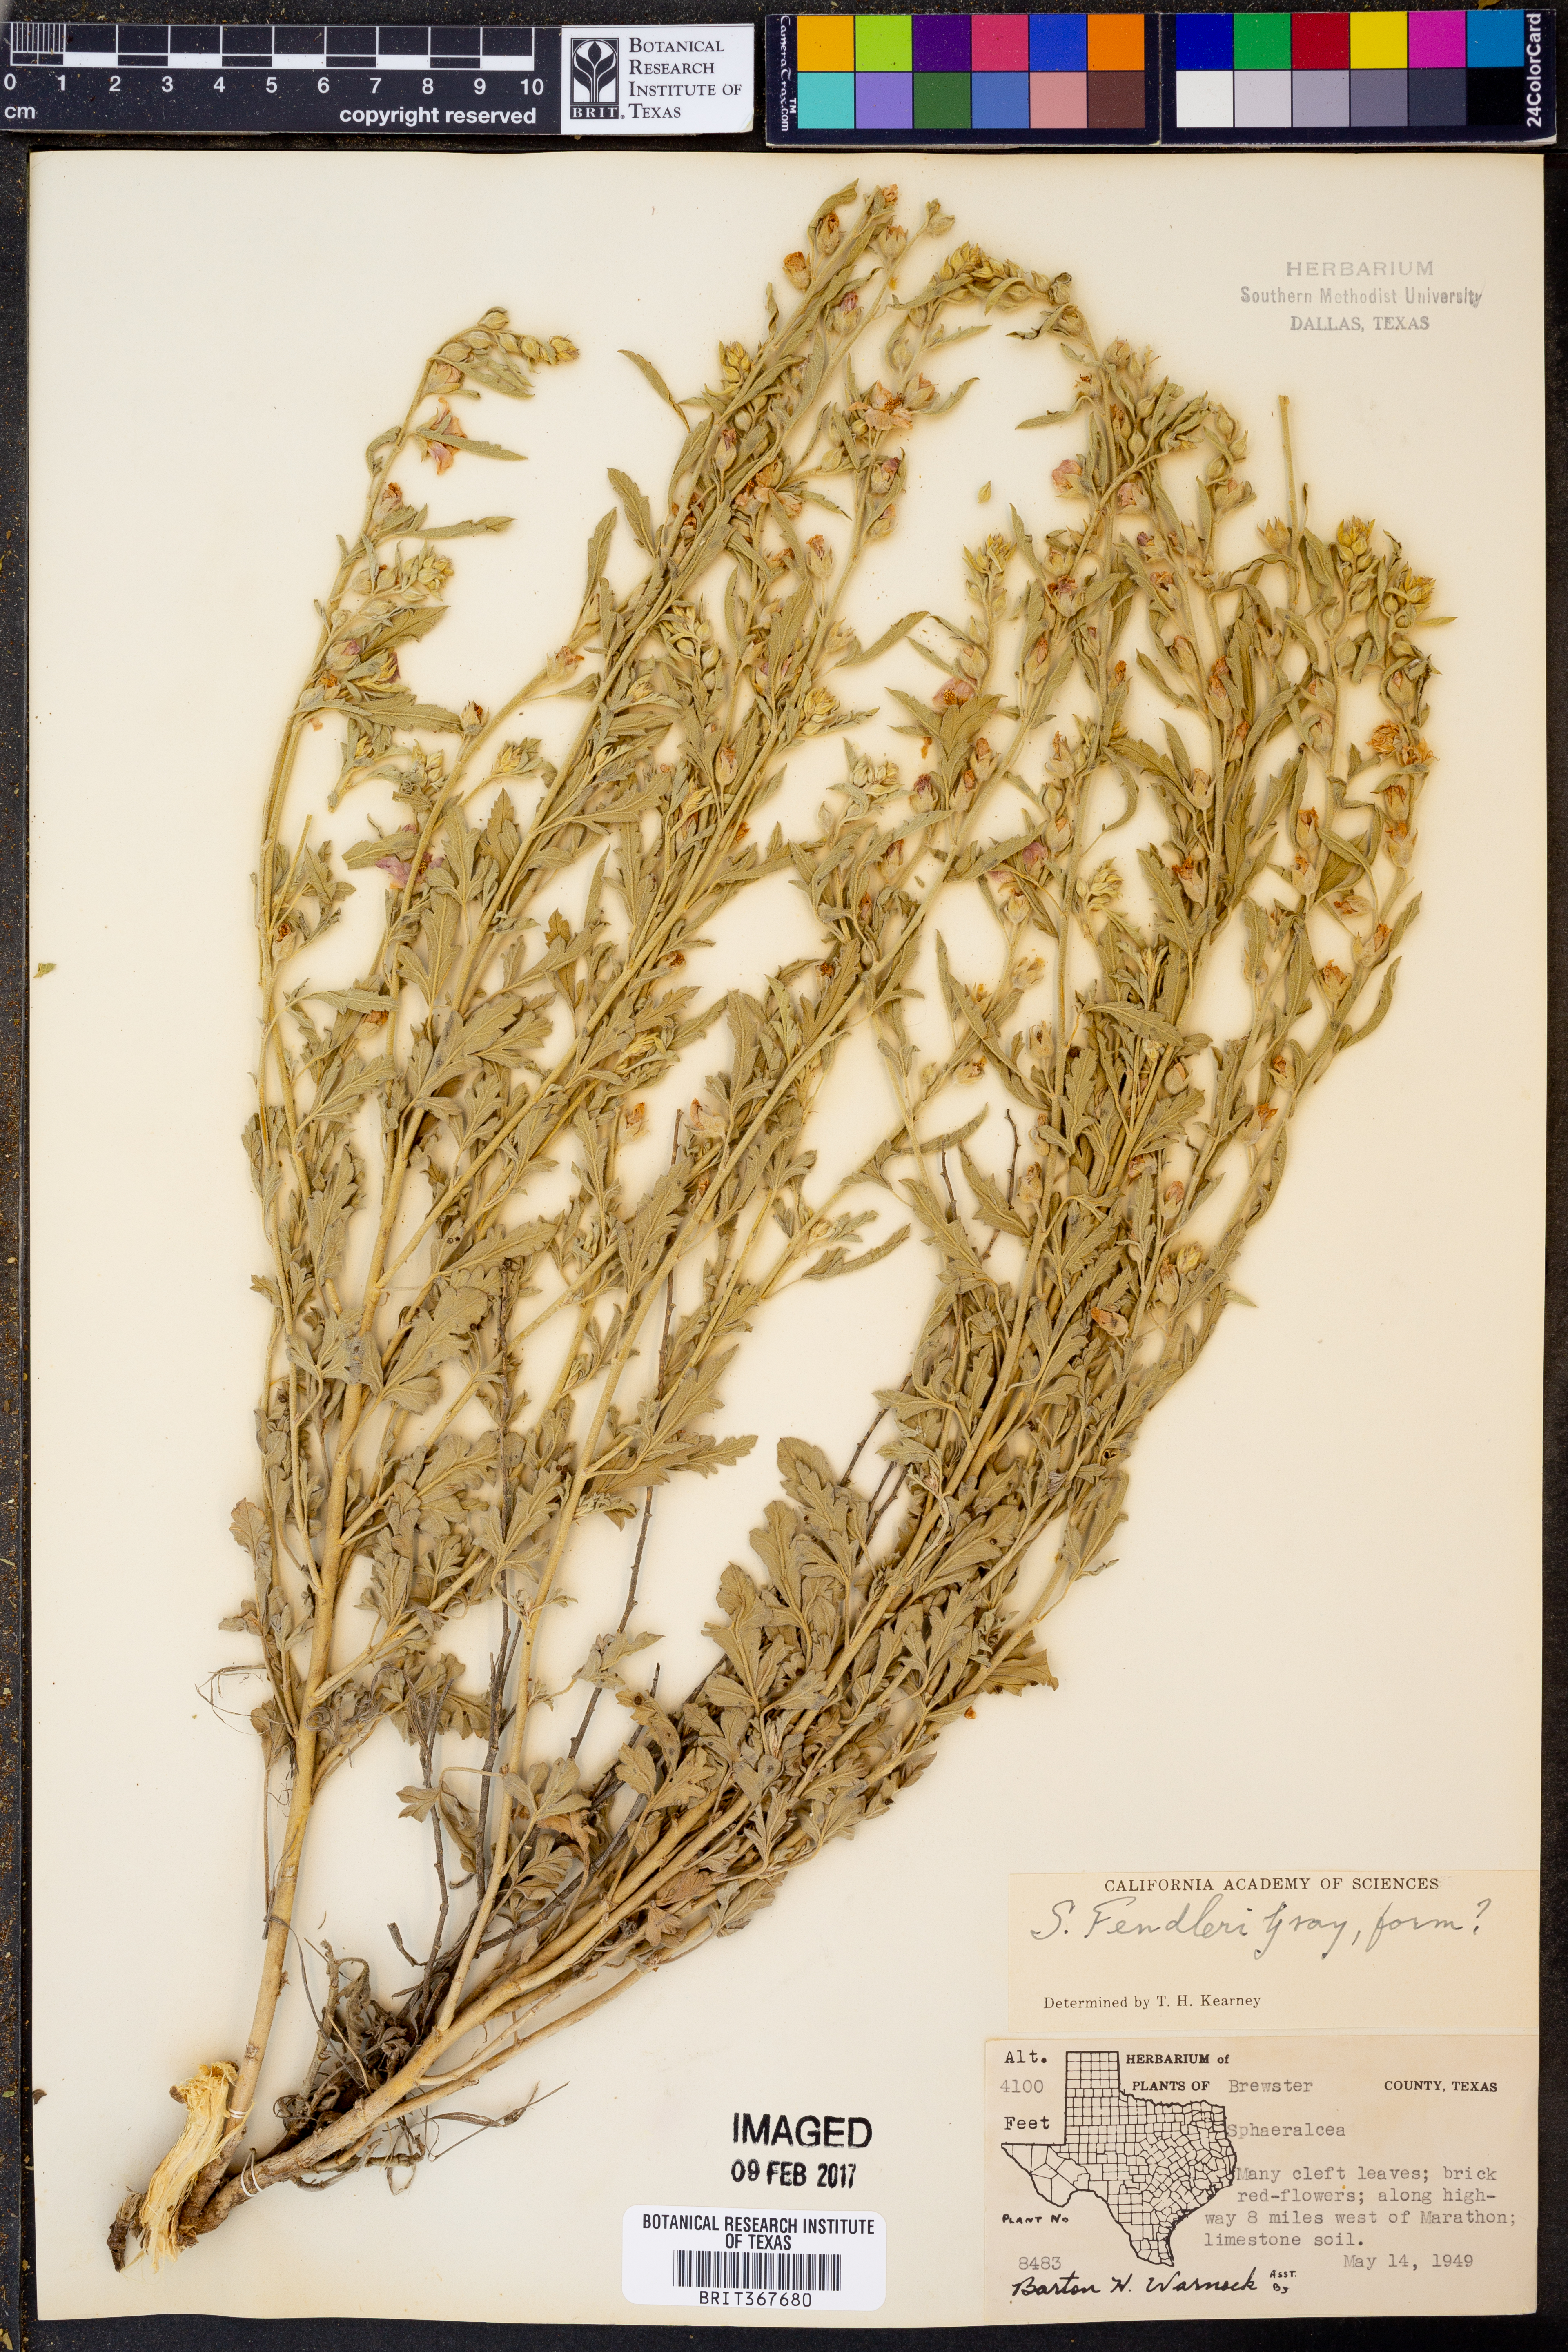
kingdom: Plantae
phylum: Tracheophyta
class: Magnoliopsida
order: Malvales
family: Malvaceae
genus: Sphaeralcea
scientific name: Sphaeralcea fendleri
